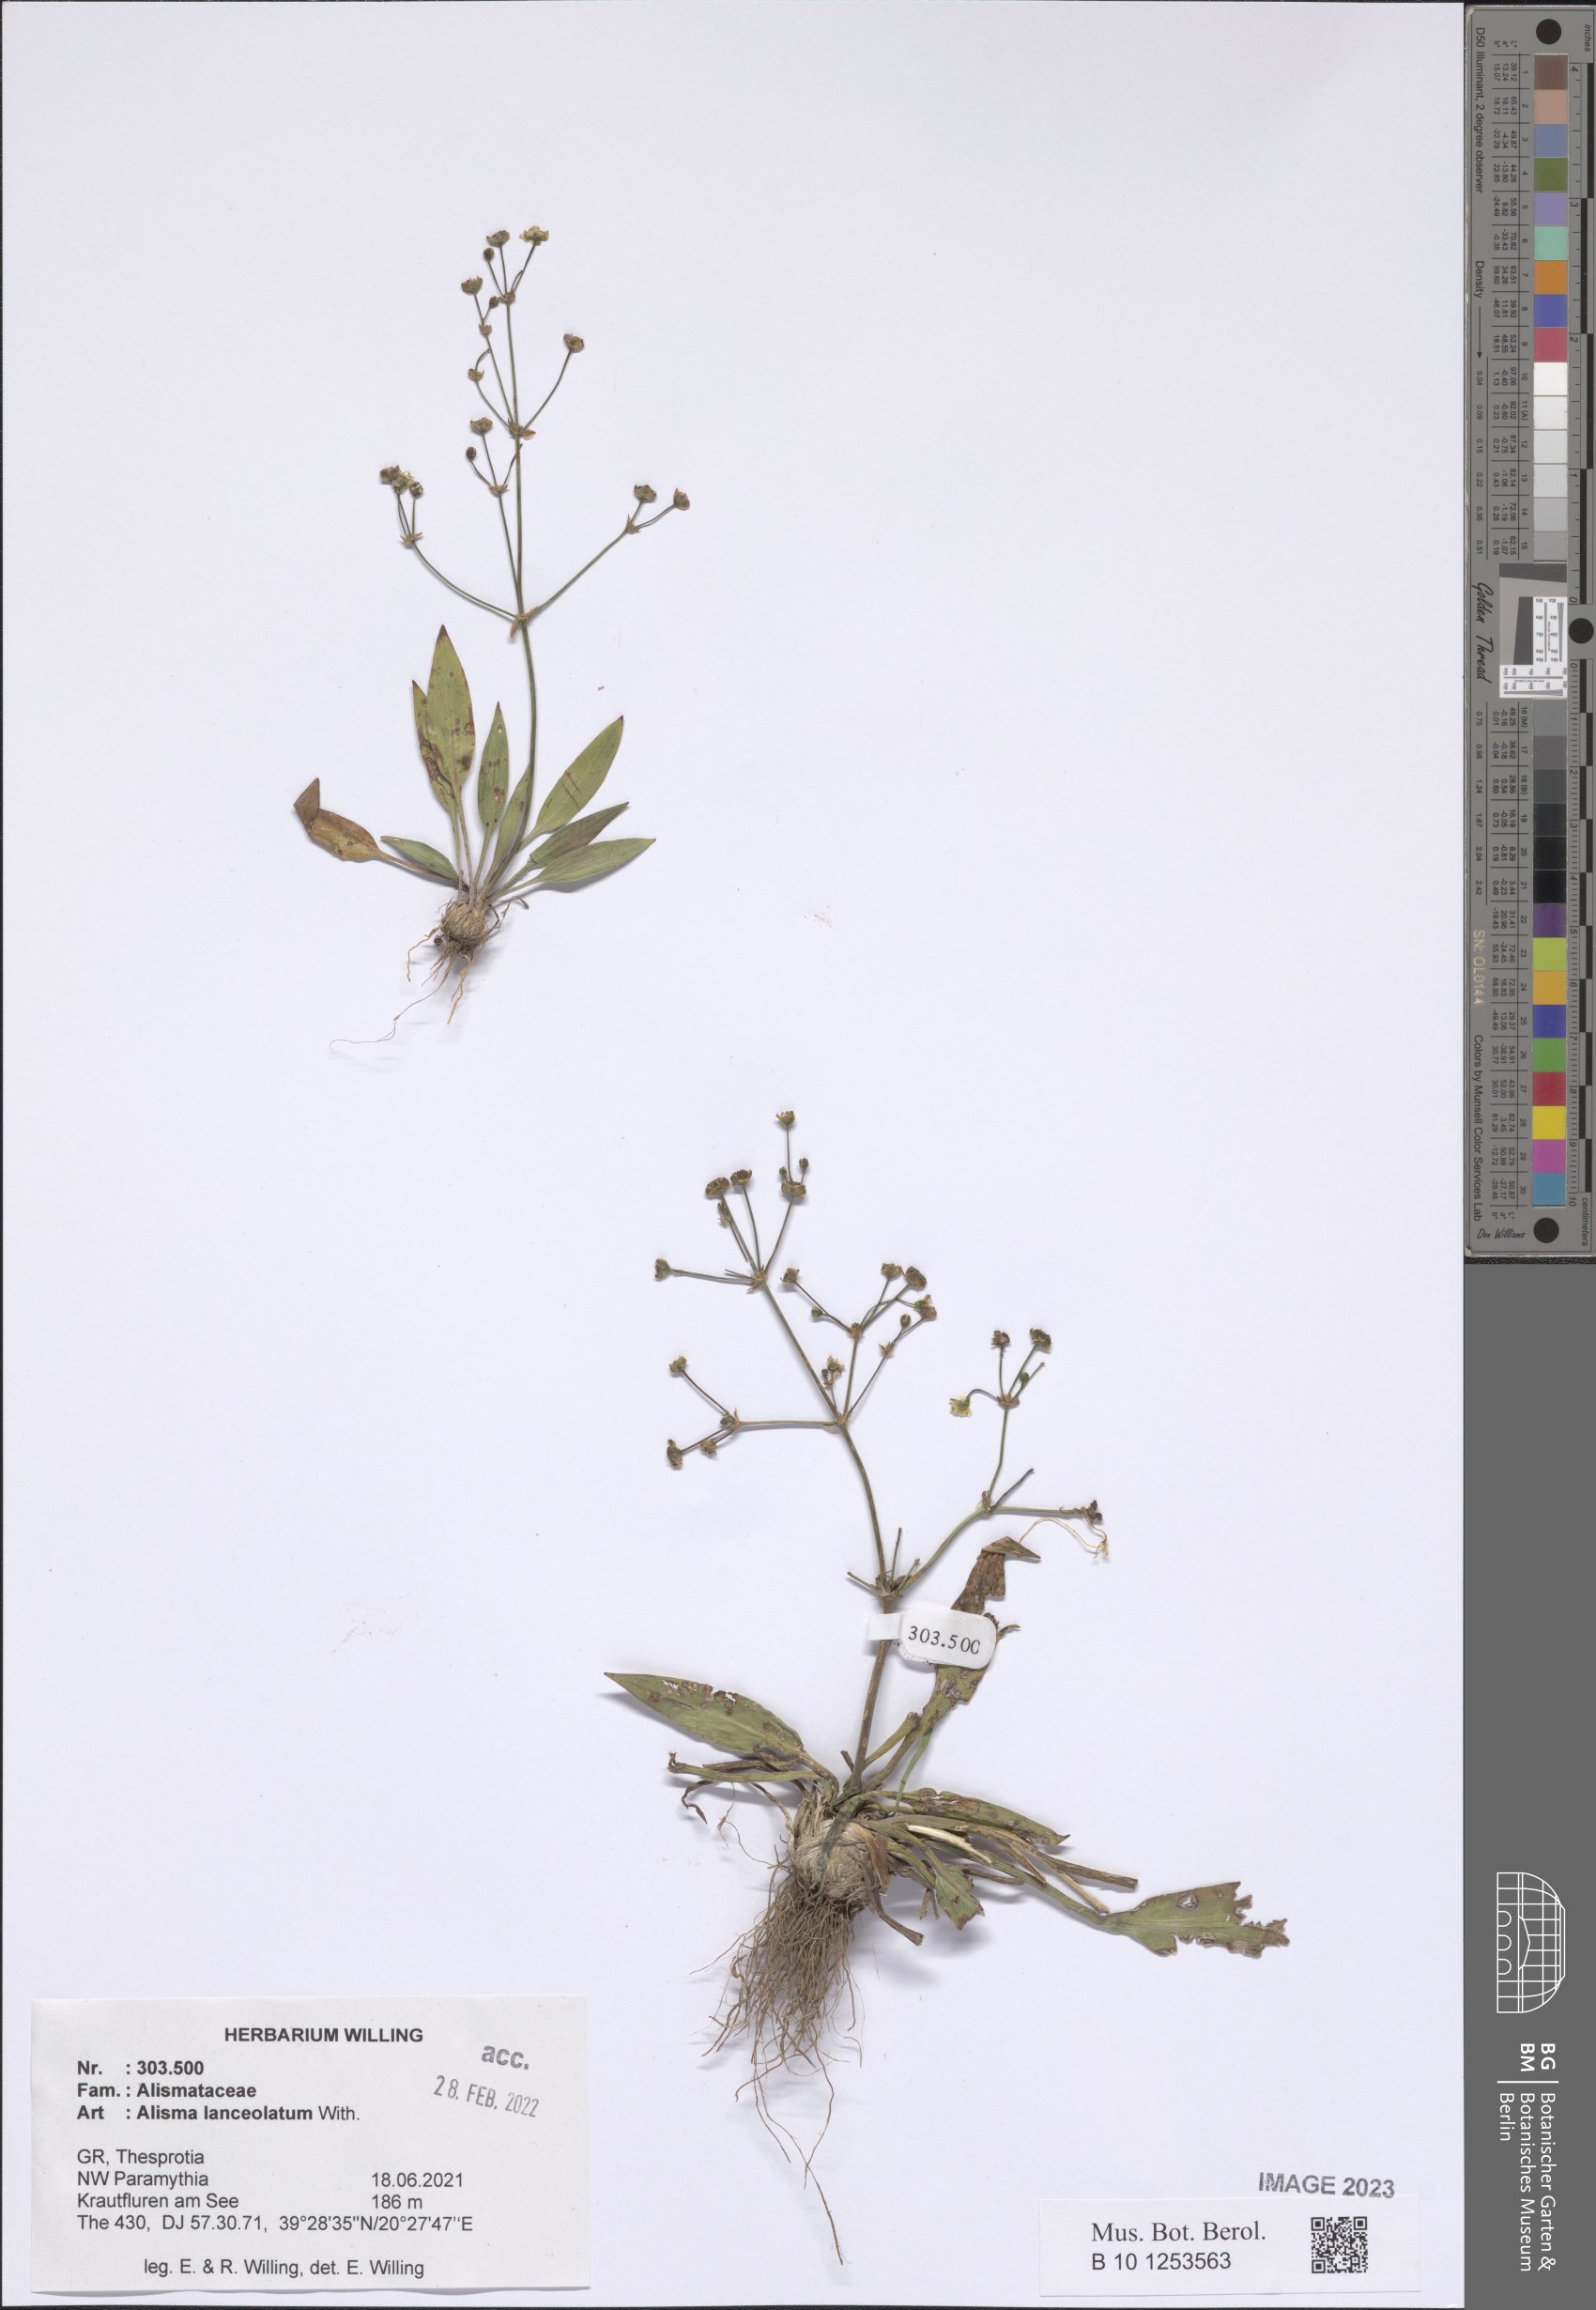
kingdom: Plantae
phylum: Tracheophyta
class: Liliopsida
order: Alismatales
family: Alismataceae
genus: Alisma
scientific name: Alisma lanceolatum
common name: Narrow-leaved water-plantain
